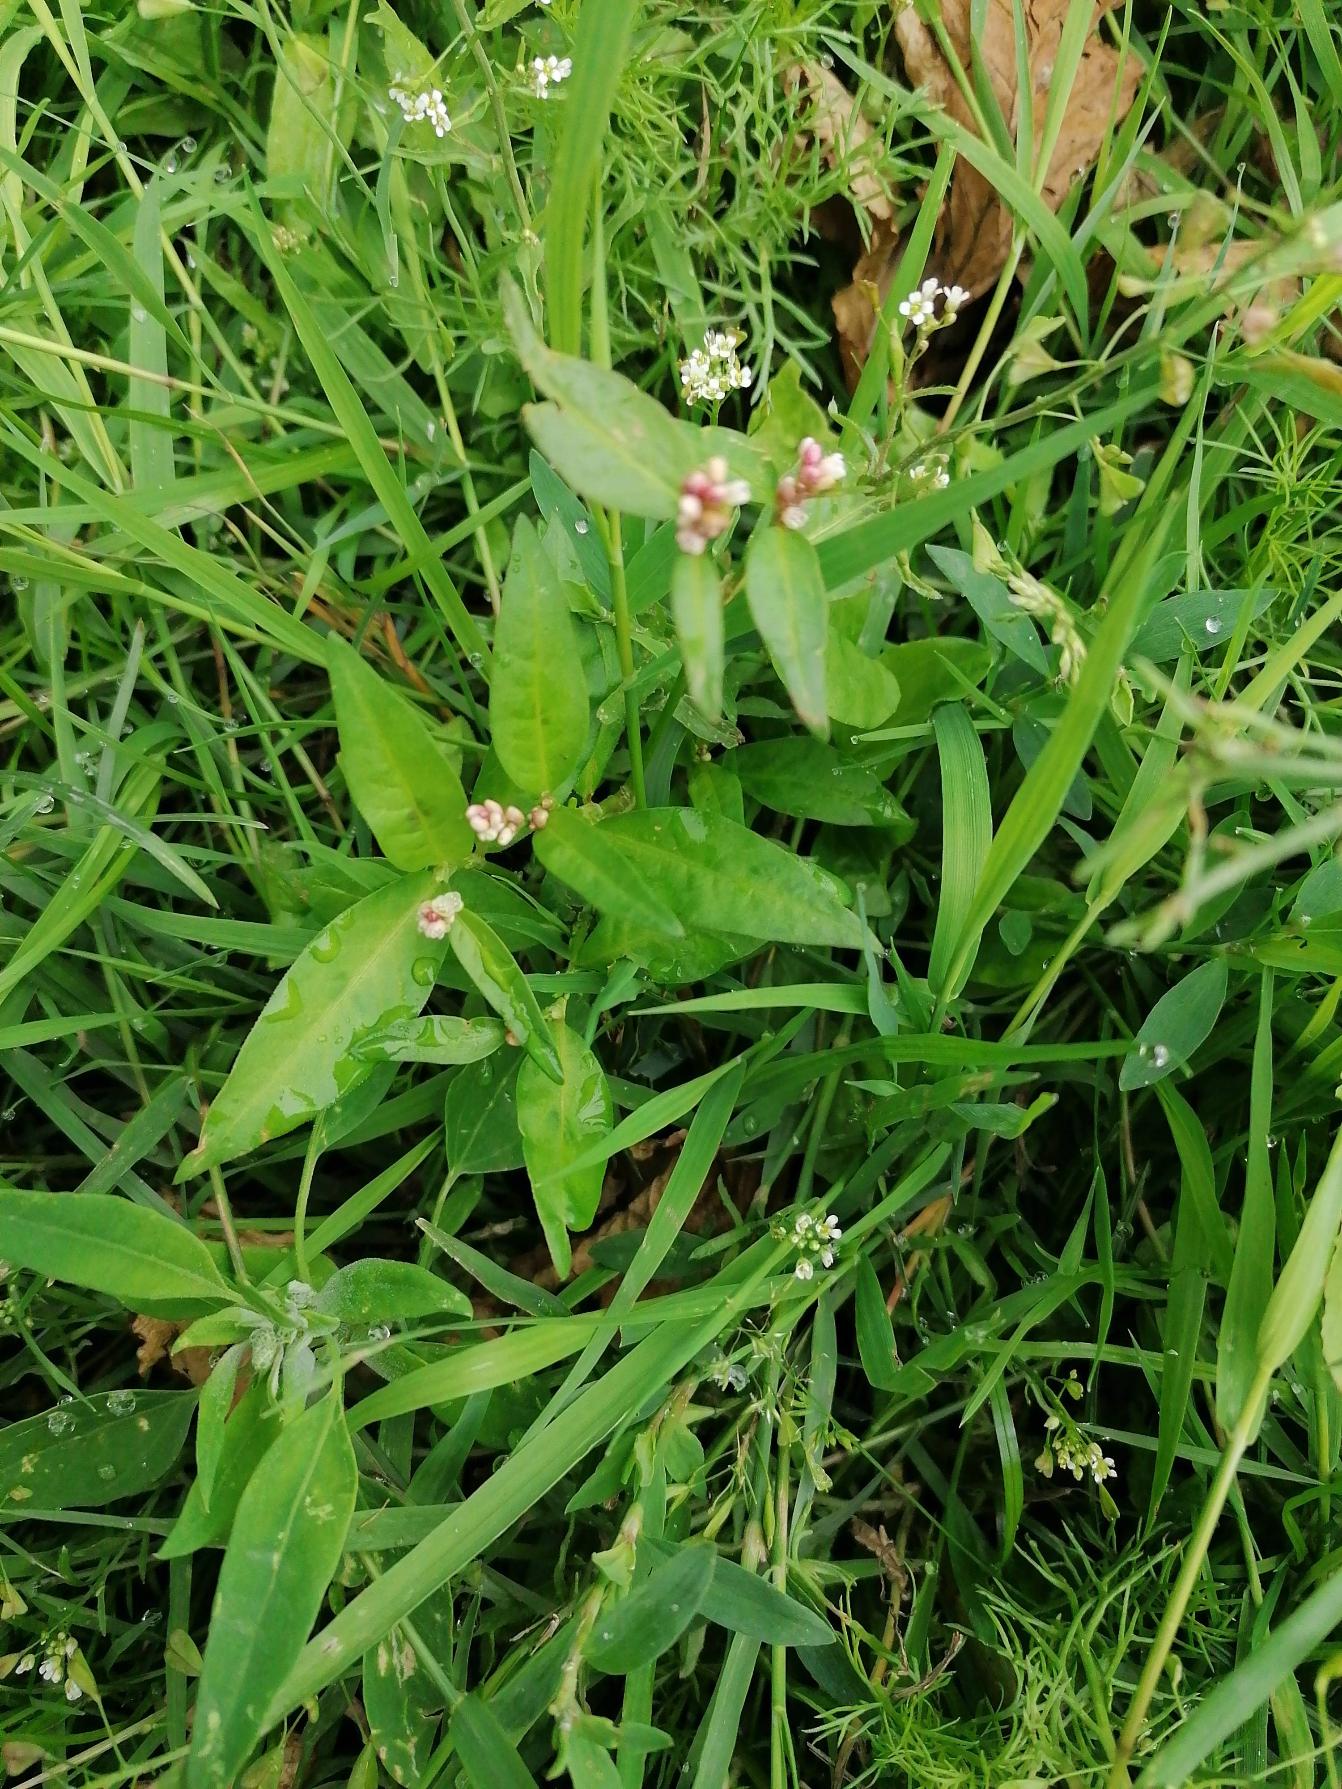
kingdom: Plantae
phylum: Tracheophyta
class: Magnoliopsida
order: Caryophyllales
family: Polygonaceae
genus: Persicaria
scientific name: Persicaria maculosa
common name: Fersken-pileurt
